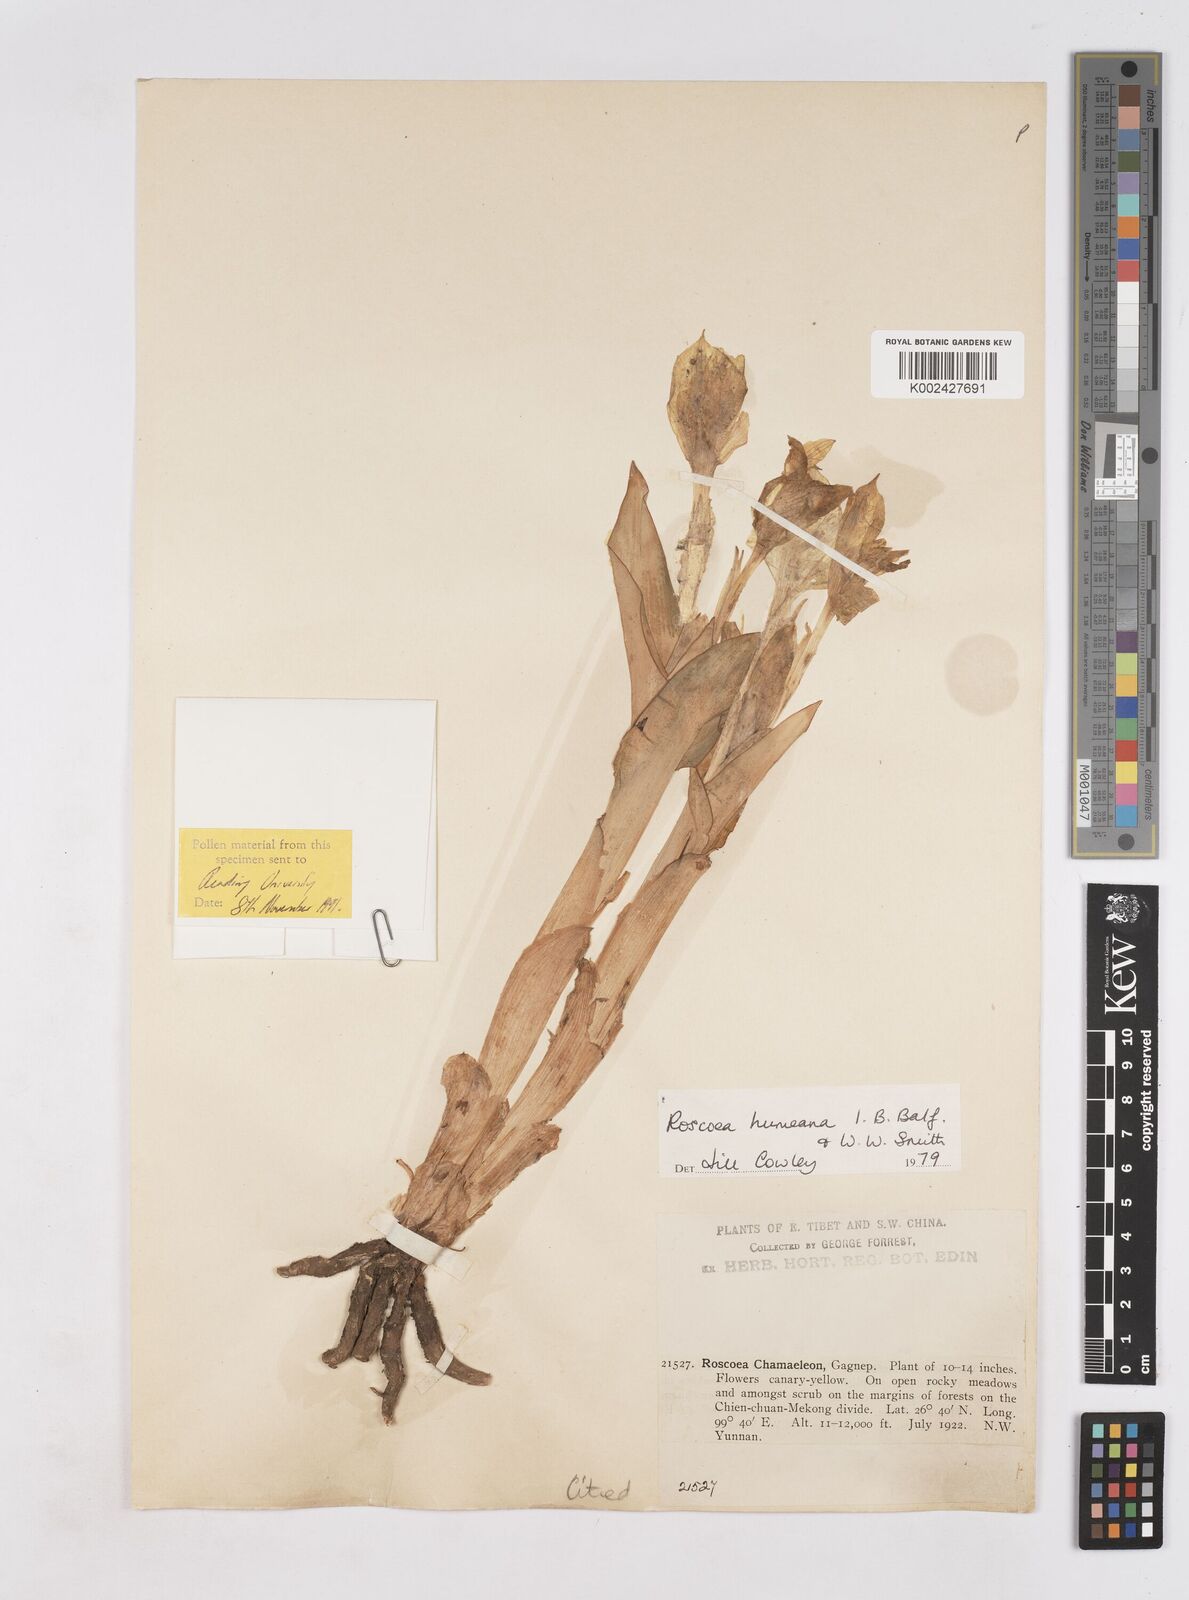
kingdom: Plantae
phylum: Tracheophyta
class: Liliopsida
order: Zingiberales
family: Zingiberaceae
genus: Roscoea
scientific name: Roscoea humeana
